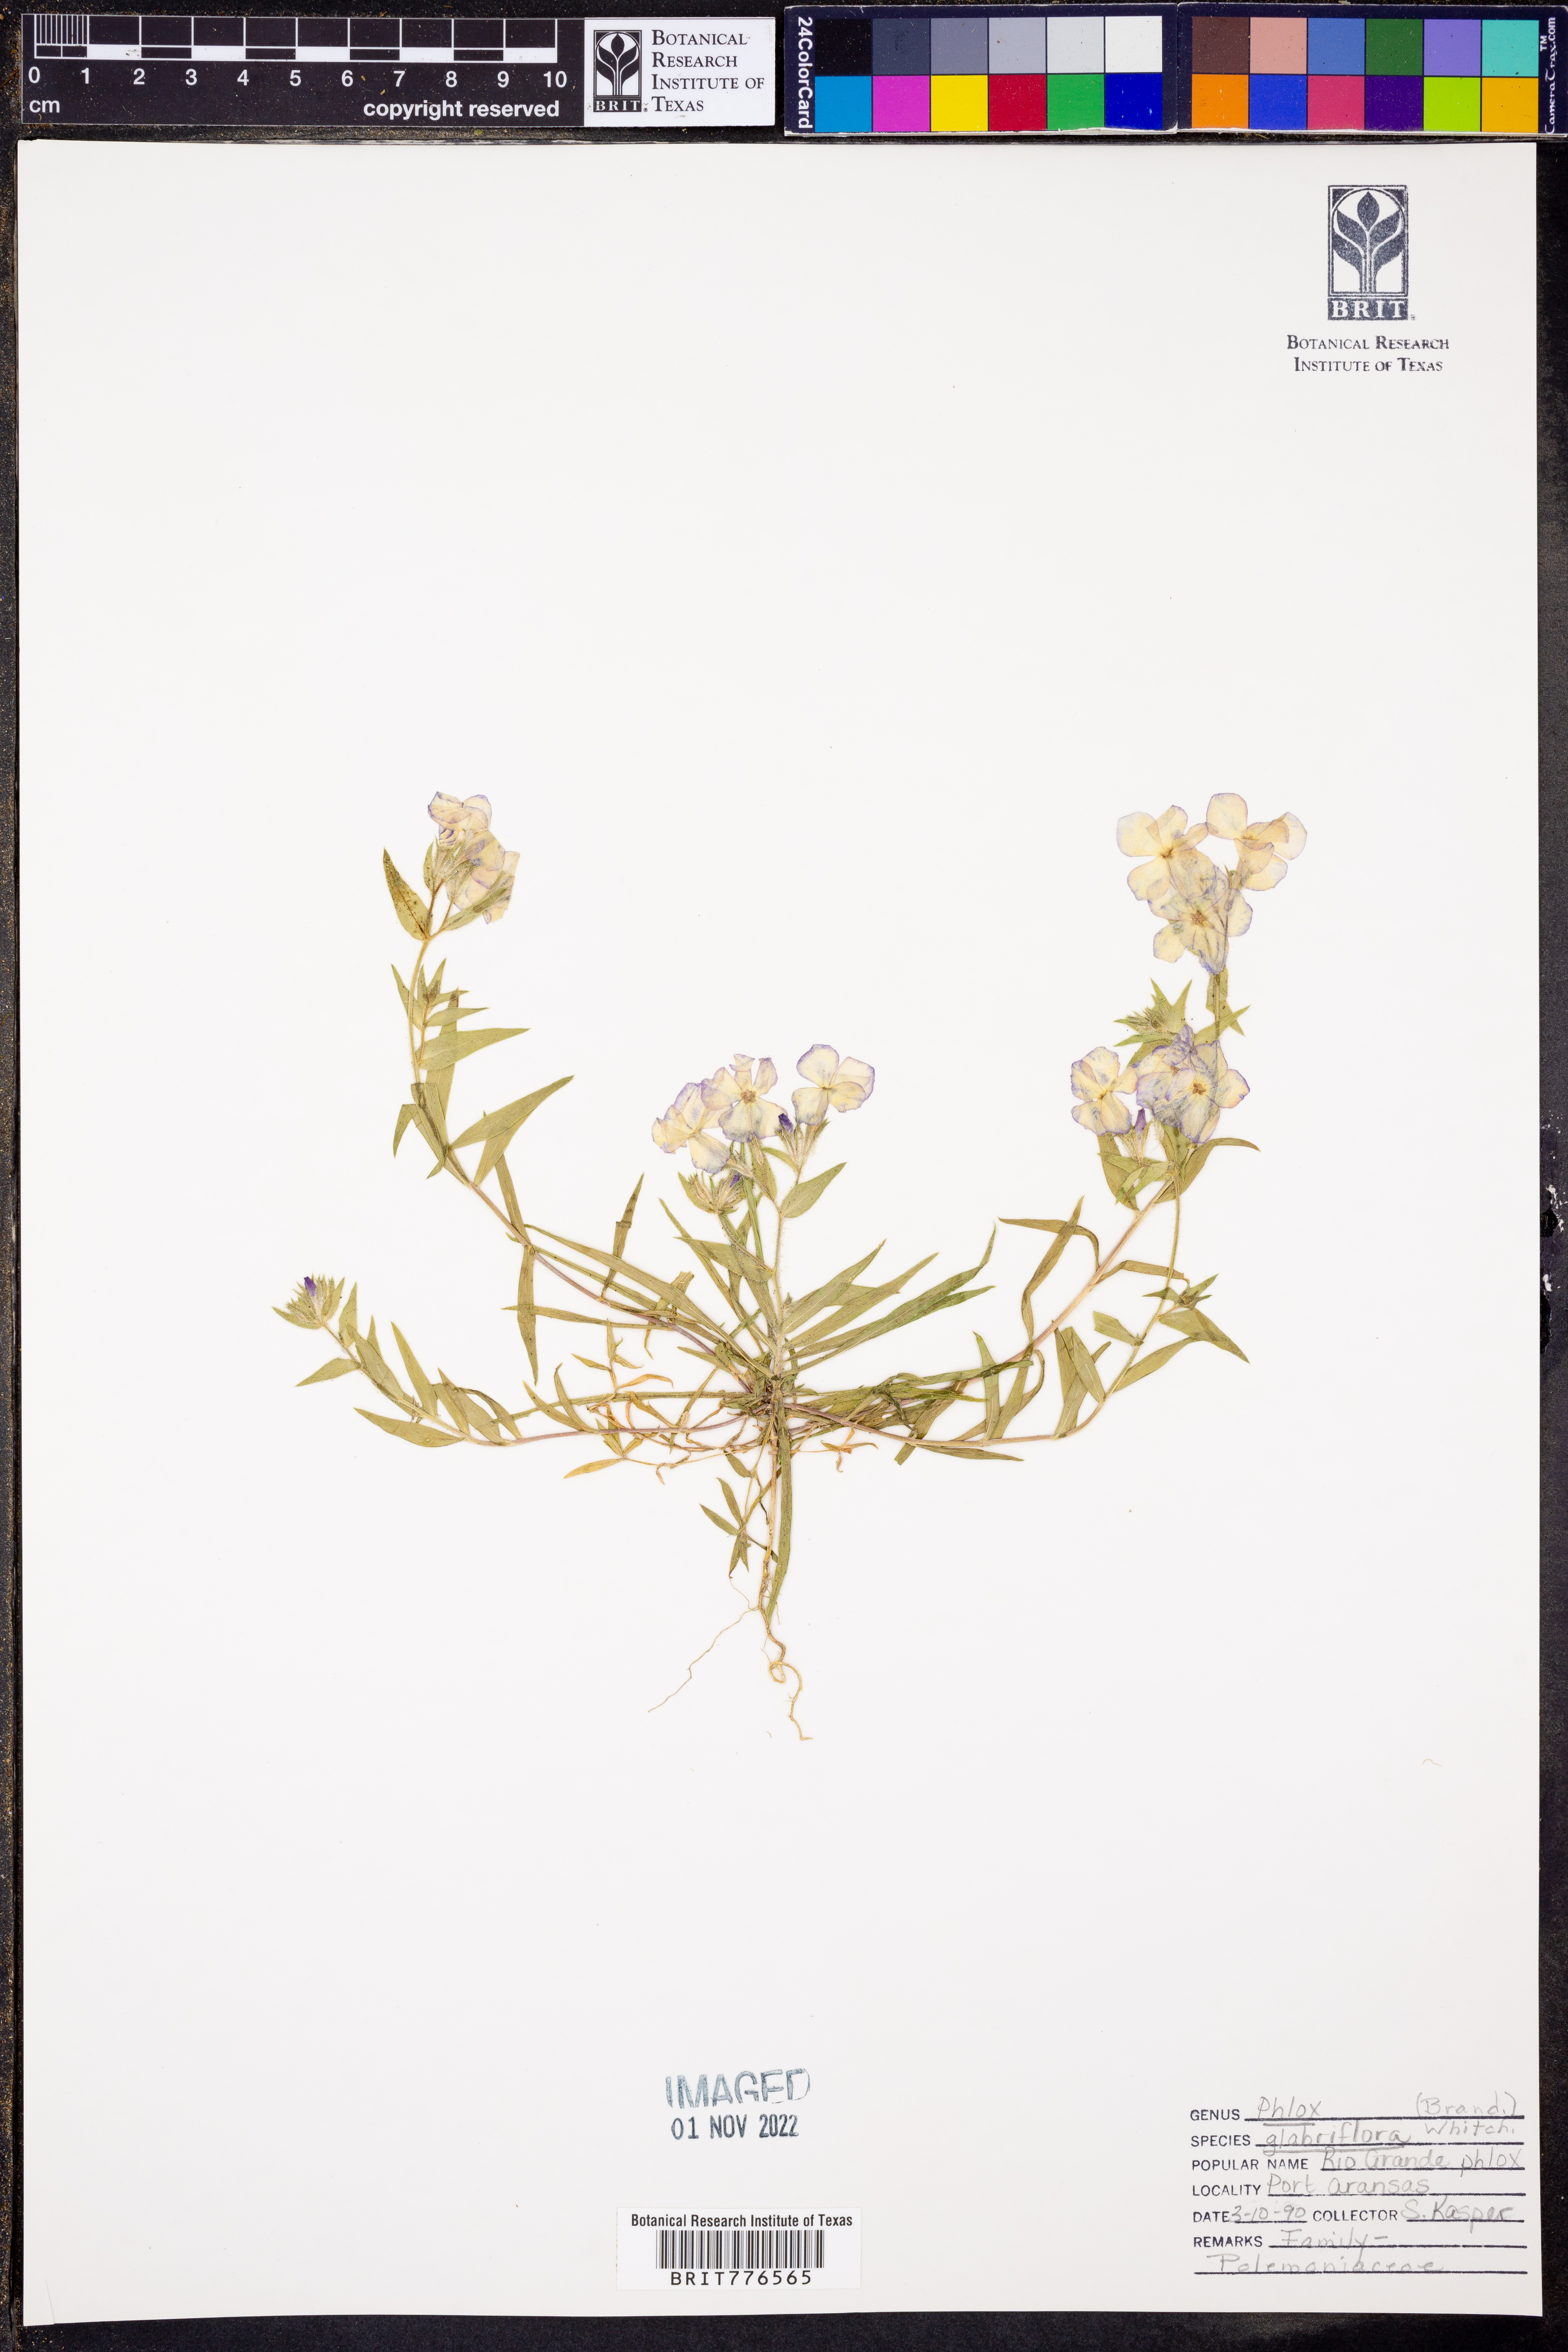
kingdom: Plantae
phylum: Tracheophyta
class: Magnoliopsida
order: Ericales
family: Polemoniaceae
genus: Phlox
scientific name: Phlox glabriflora
